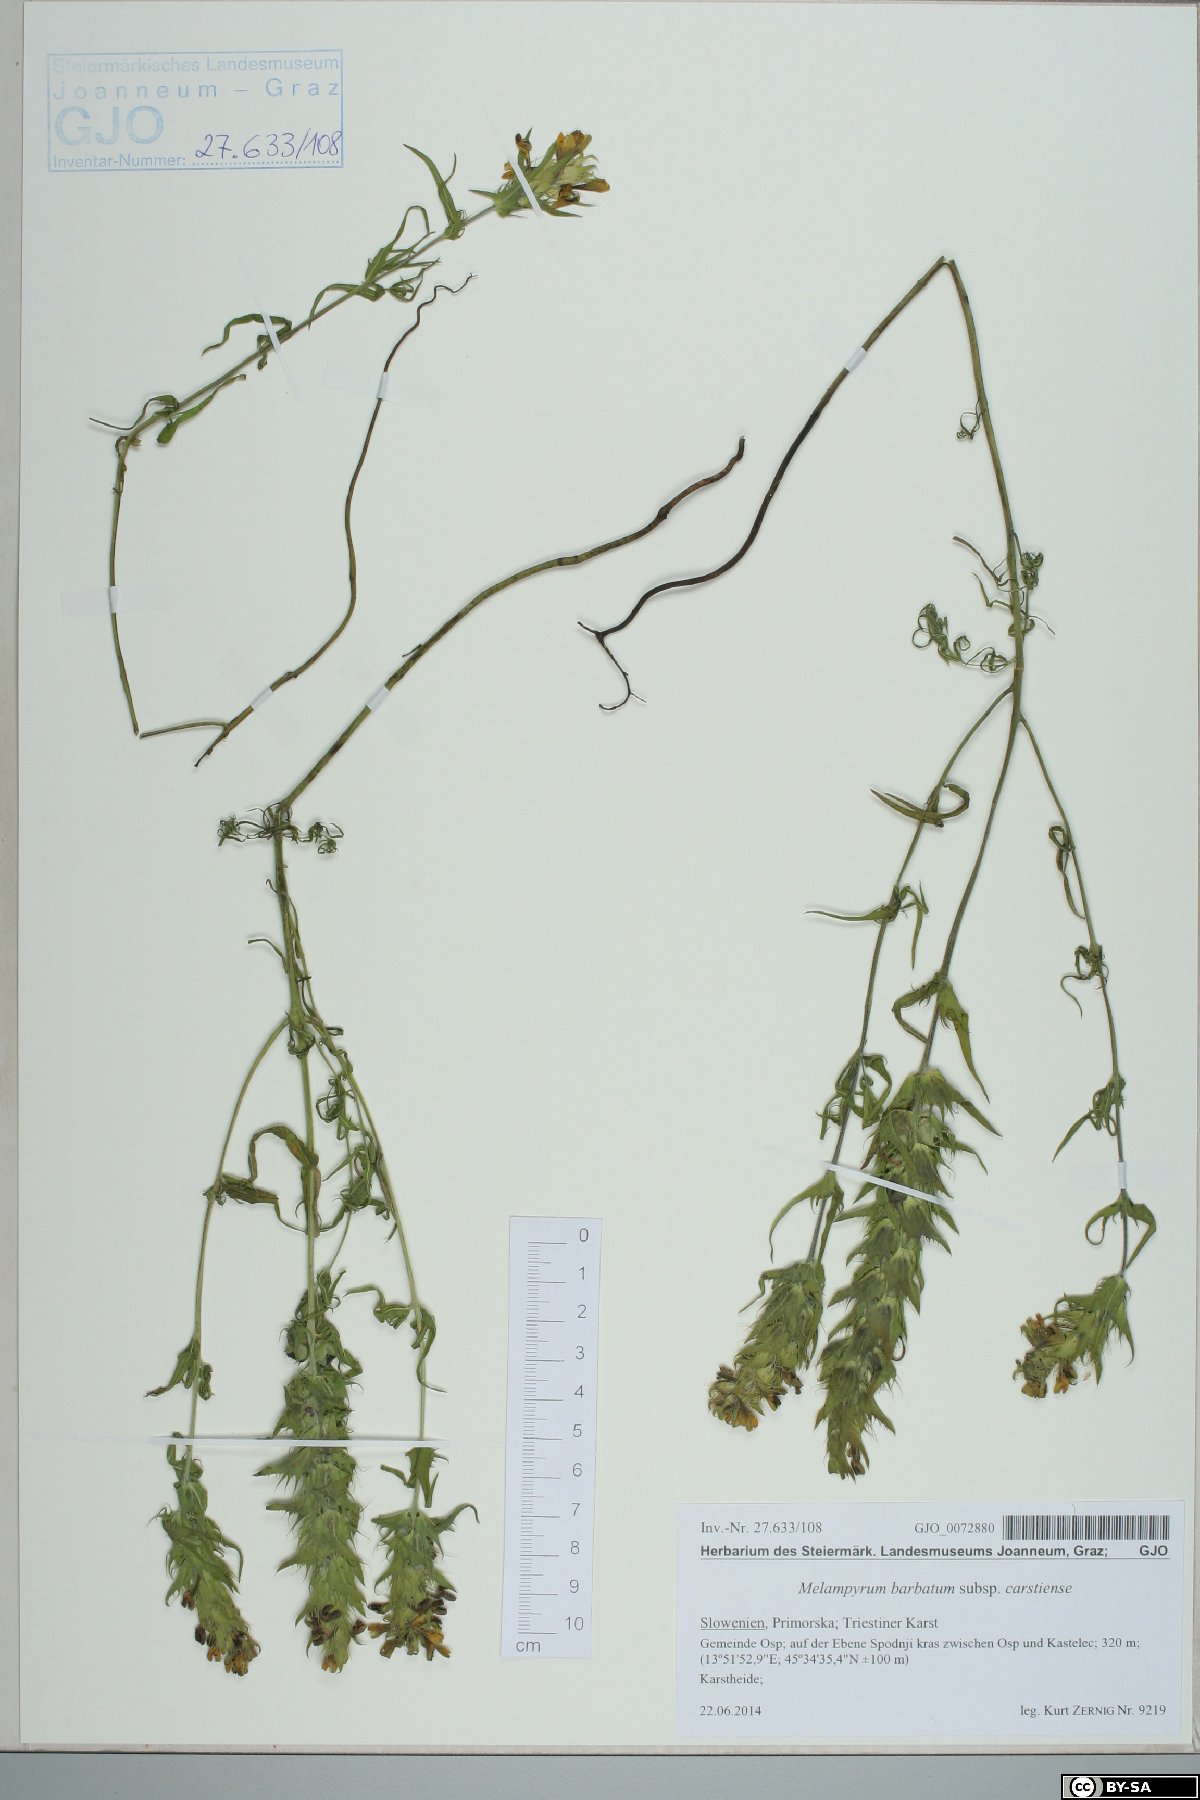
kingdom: Plantae
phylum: Tracheophyta
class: Magnoliopsida
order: Lamiales
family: Orobanchaceae
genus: Melampyrum
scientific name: Melampyrum barbatum
